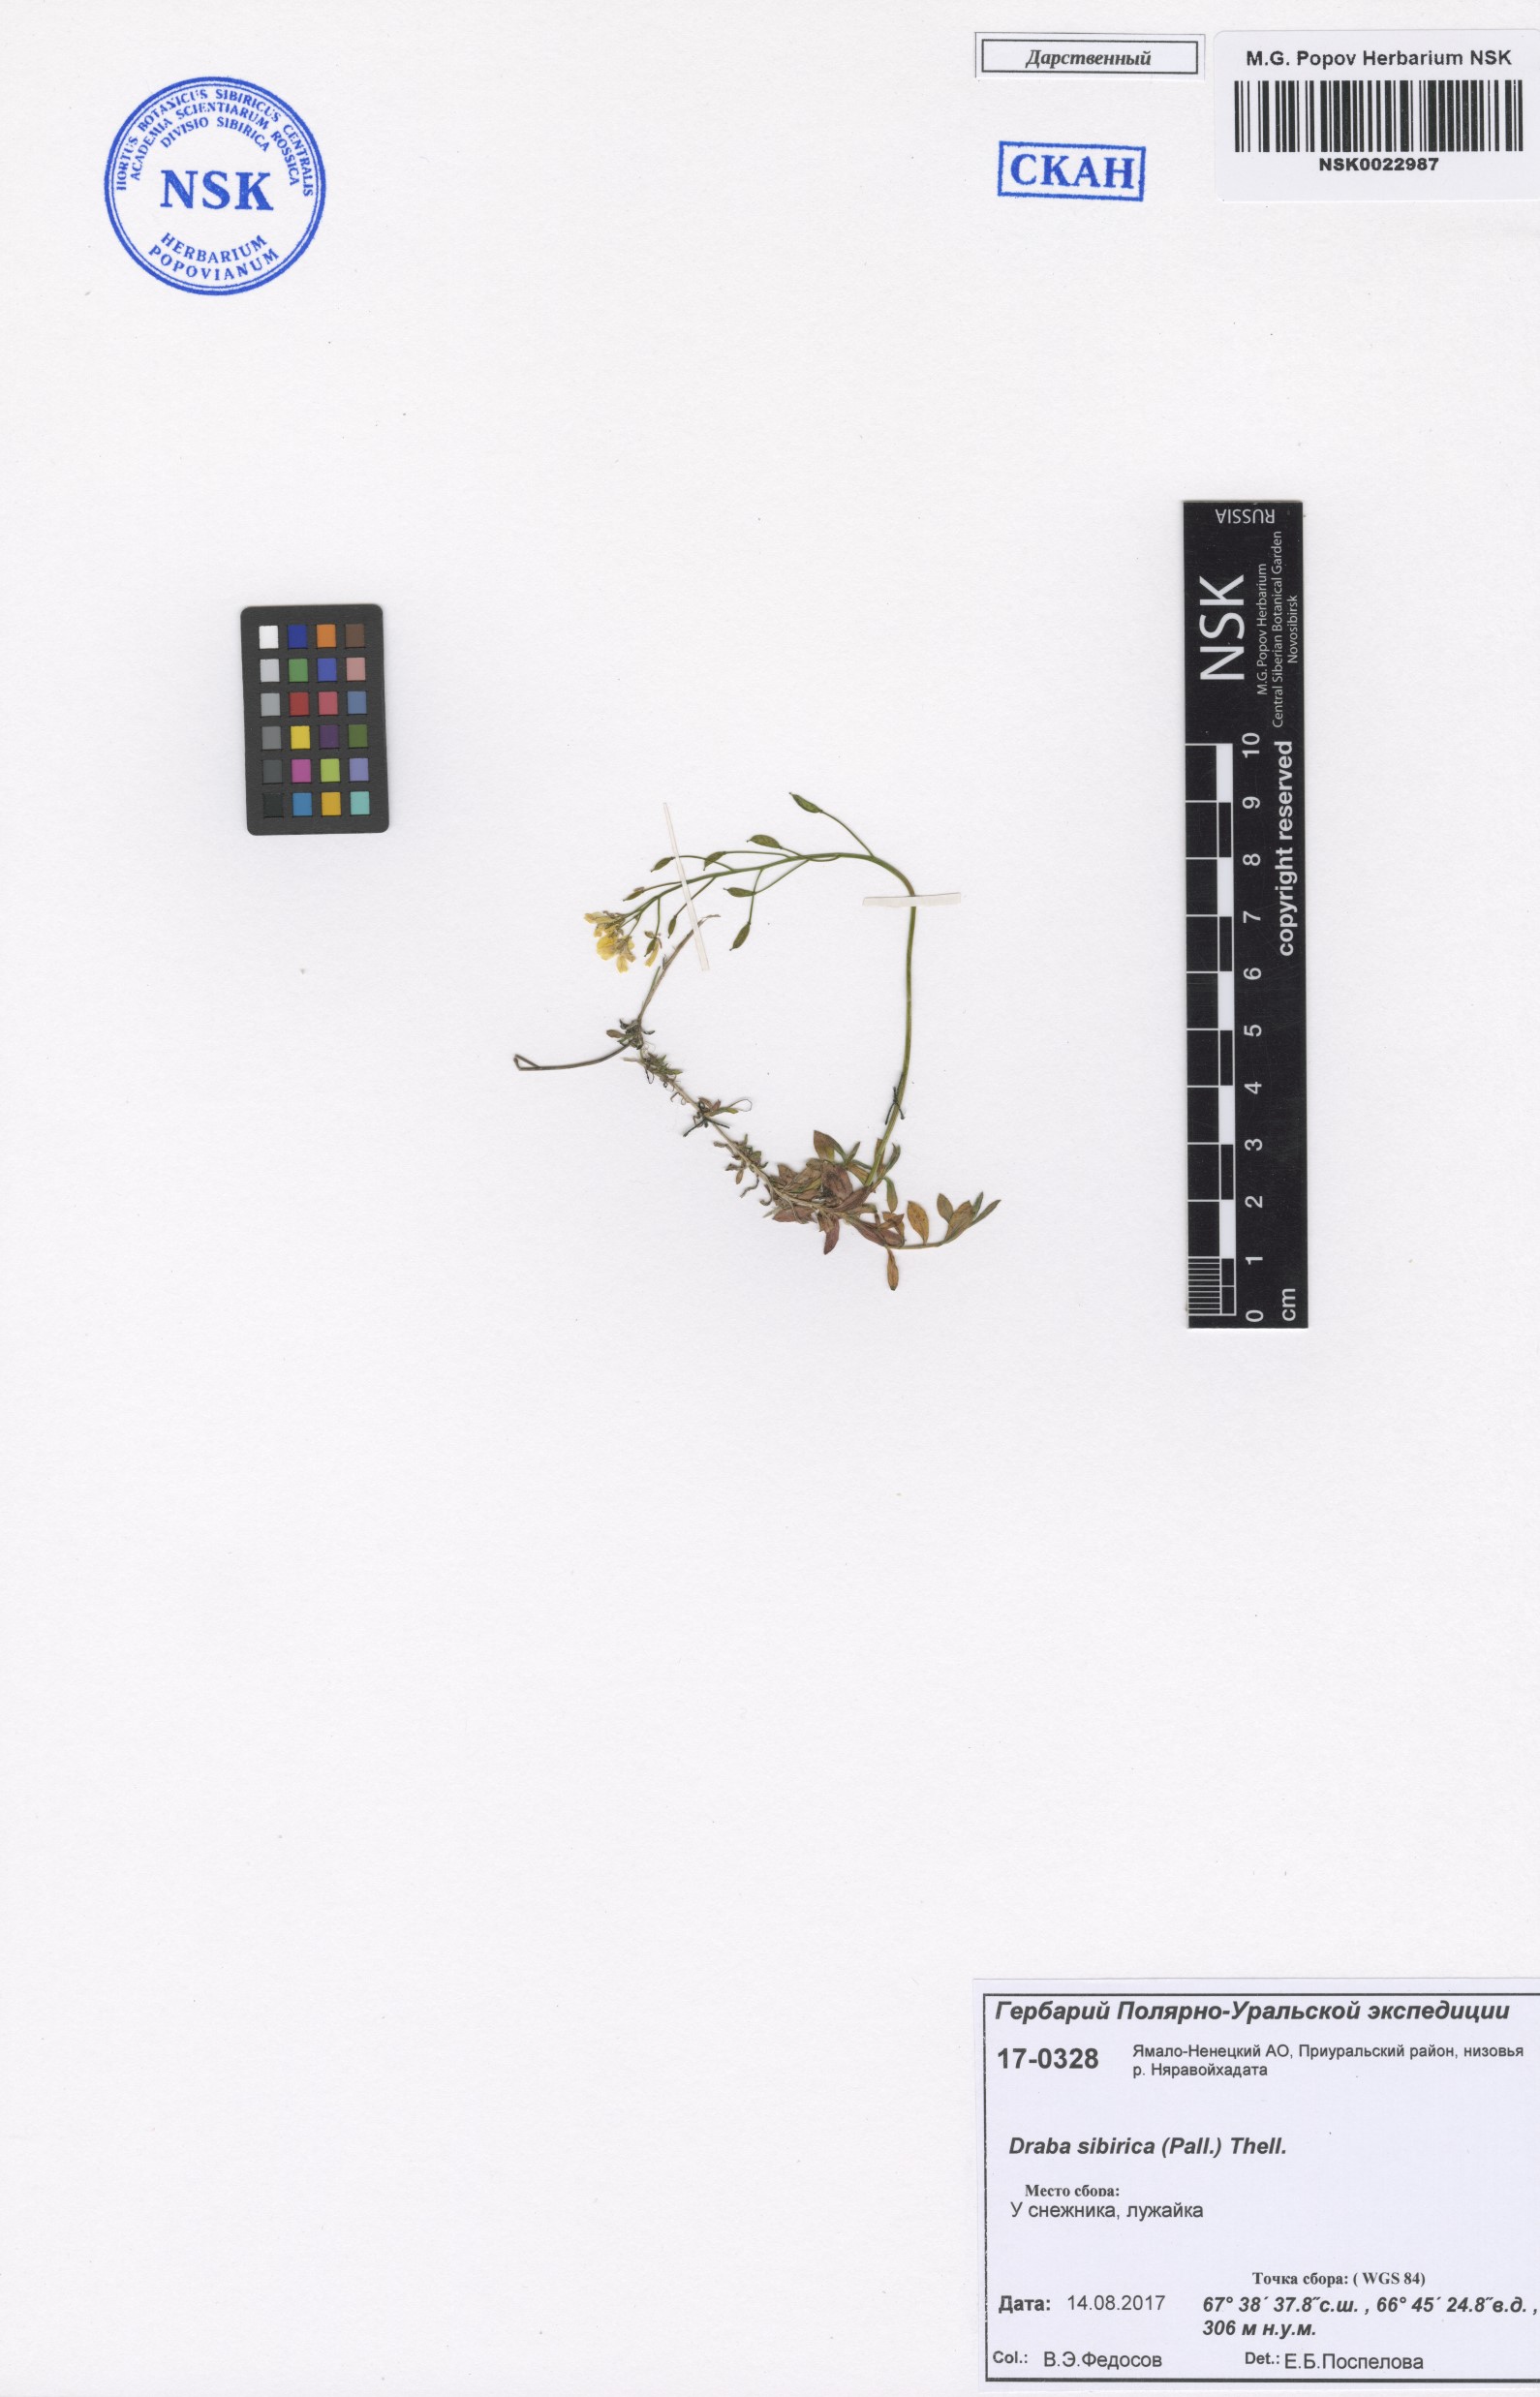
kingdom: Plantae
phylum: Tracheophyta
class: Magnoliopsida
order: Brassicales
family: Brassicaceae
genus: Draba
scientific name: Draba sibirica
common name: Siberian draba
